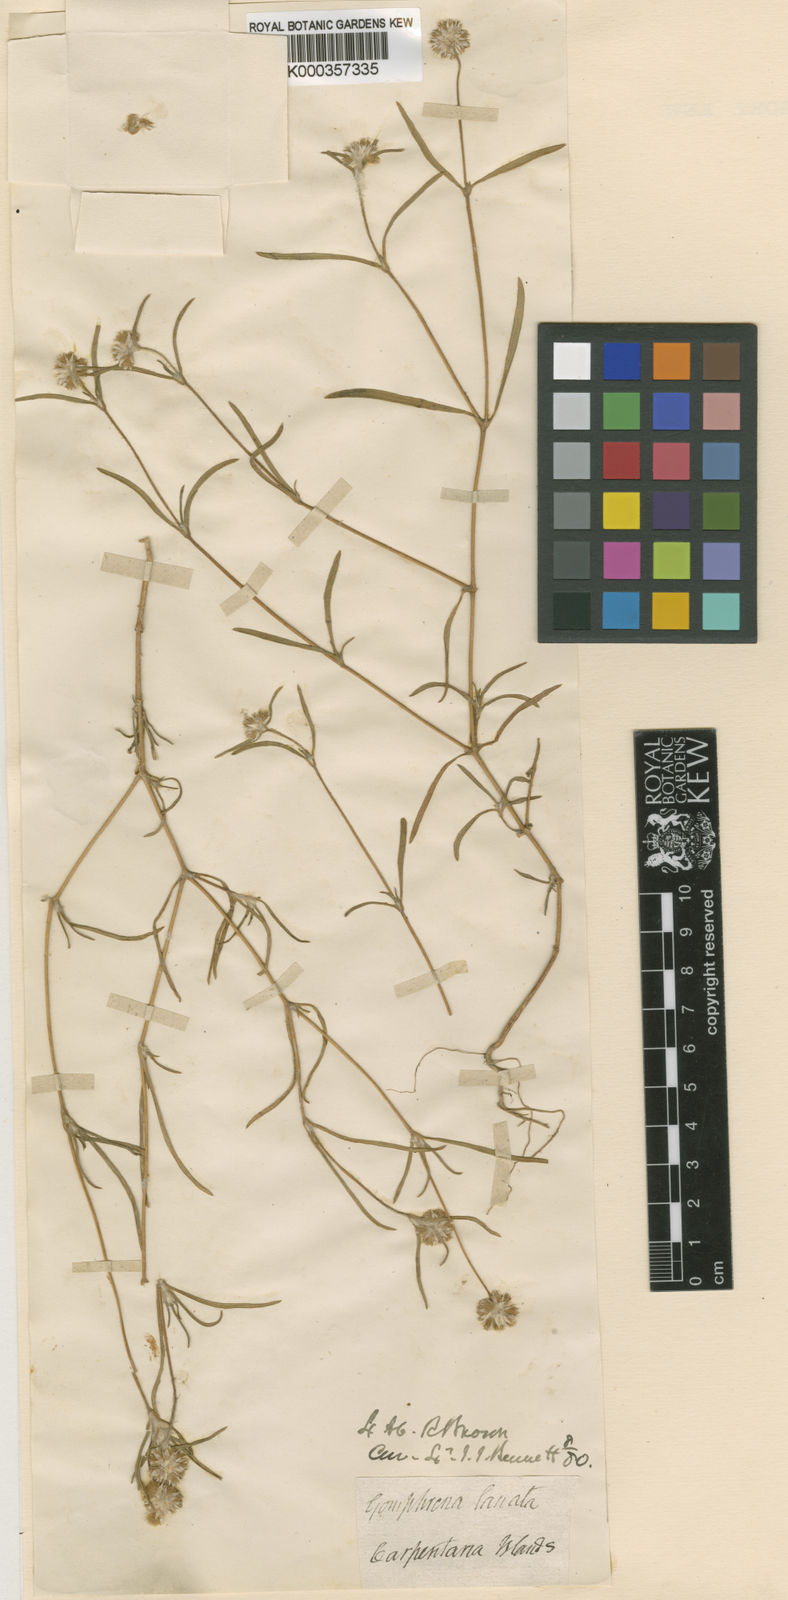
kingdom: Plantae
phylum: Tracheophyta
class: Magnoliopsida
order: Caryophyllales
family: Amaranthaceae
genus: Gomphrena
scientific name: Gomphrena lanata
